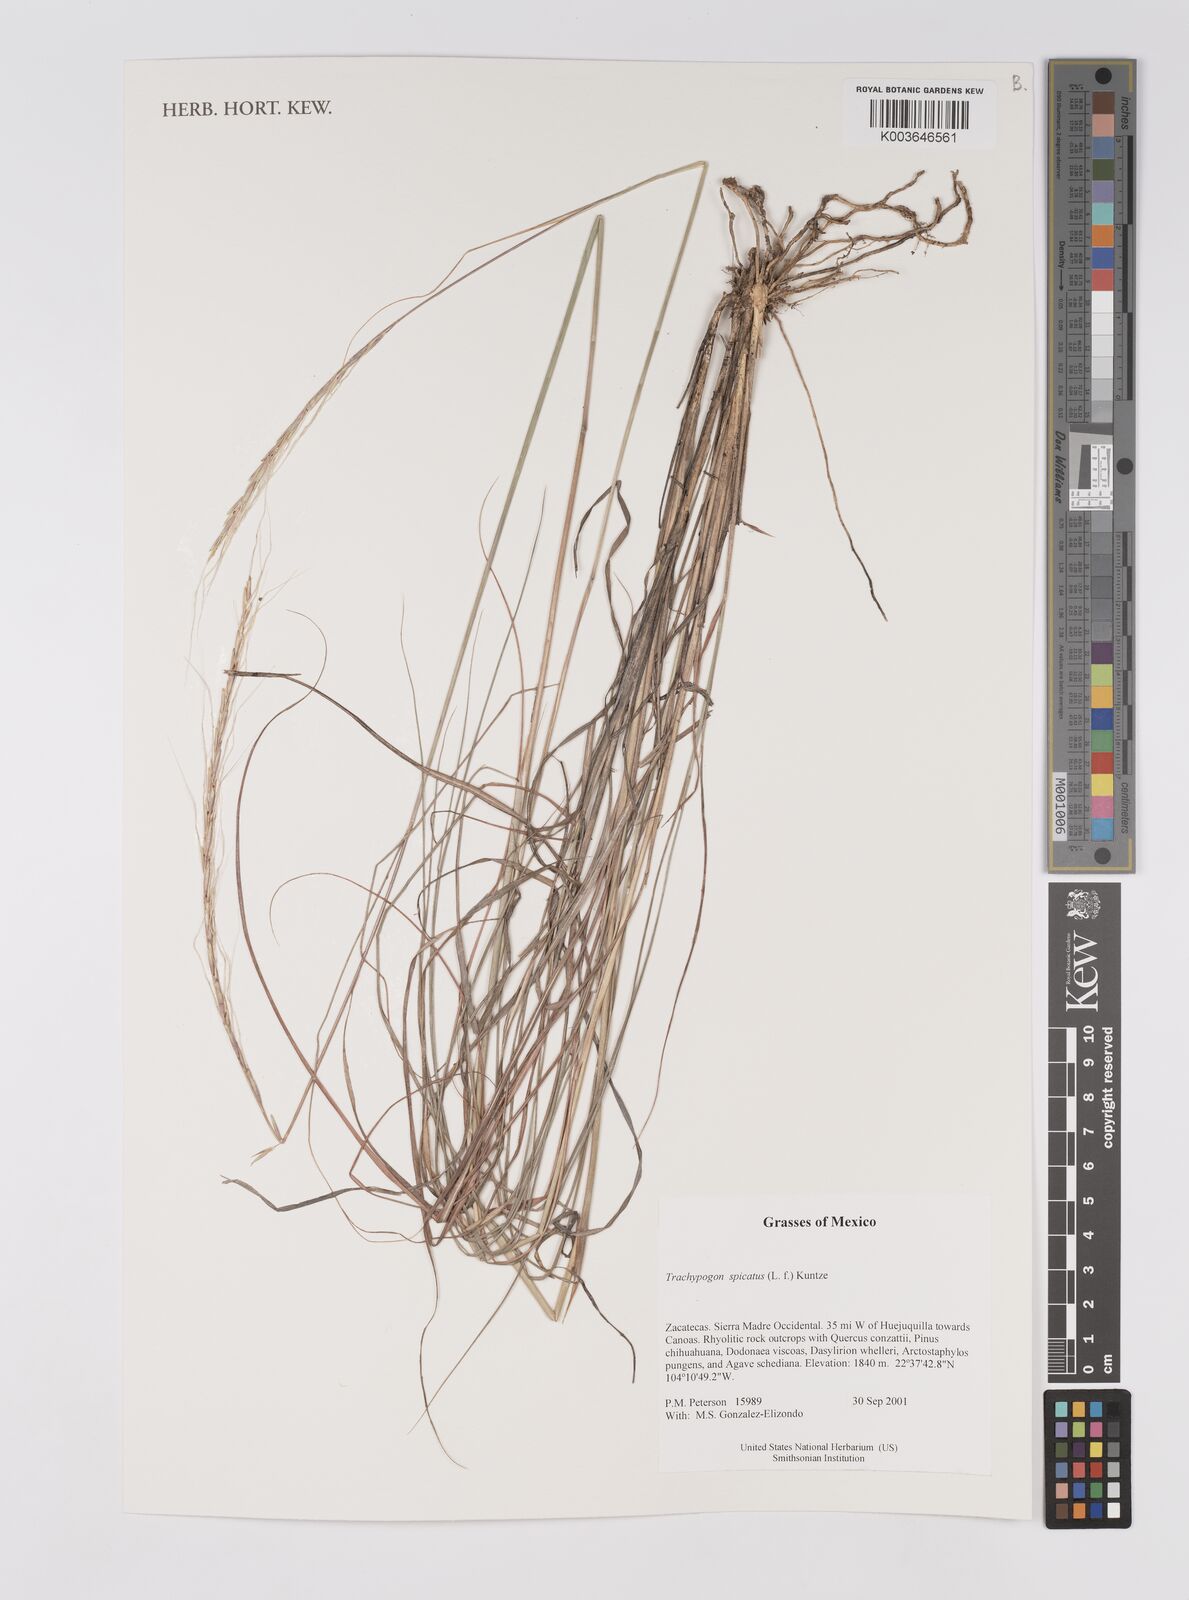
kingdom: Plantae
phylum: Tracheophyta
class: Liliopsida
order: Poales
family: Poaceae
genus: Trachypogon
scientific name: Trachypogon spicatus
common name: Crinkle-awn
